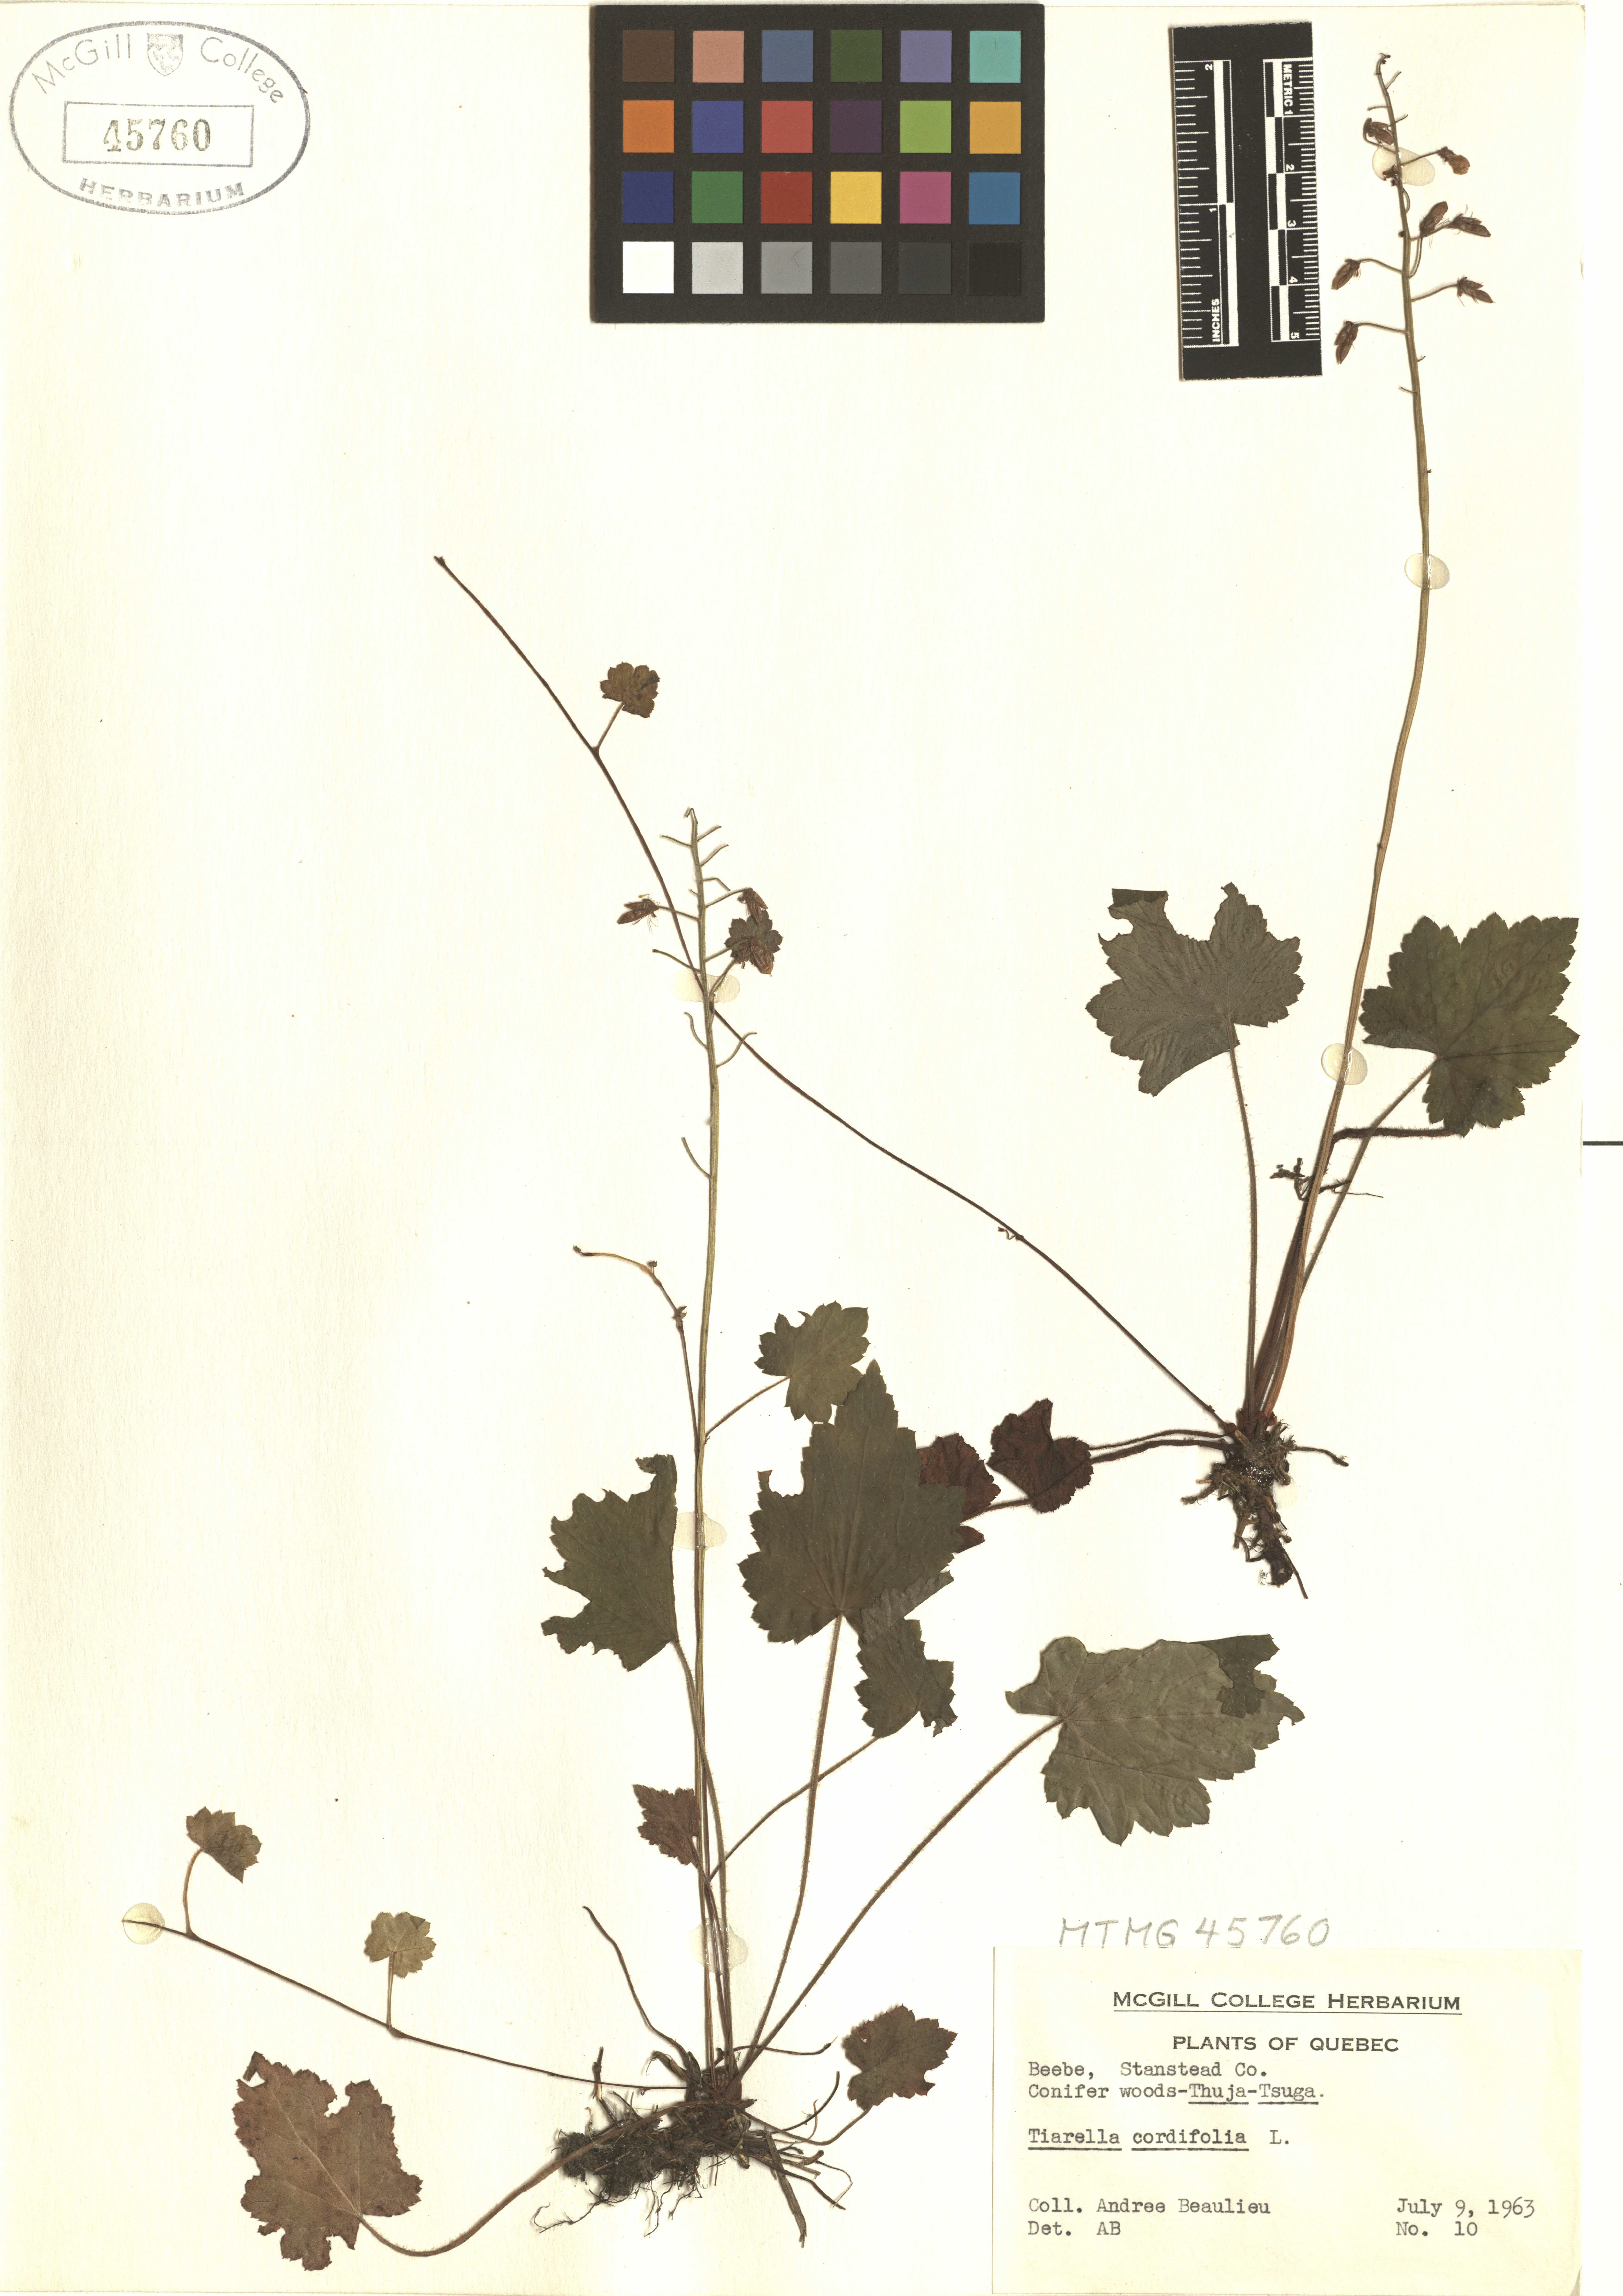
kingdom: Plantae
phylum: Tracheophyta
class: Magnoliopsida
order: Saxifragales
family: Saxifragaceae
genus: Tiarella
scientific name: Tiarella cordifolia
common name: Foamflower
